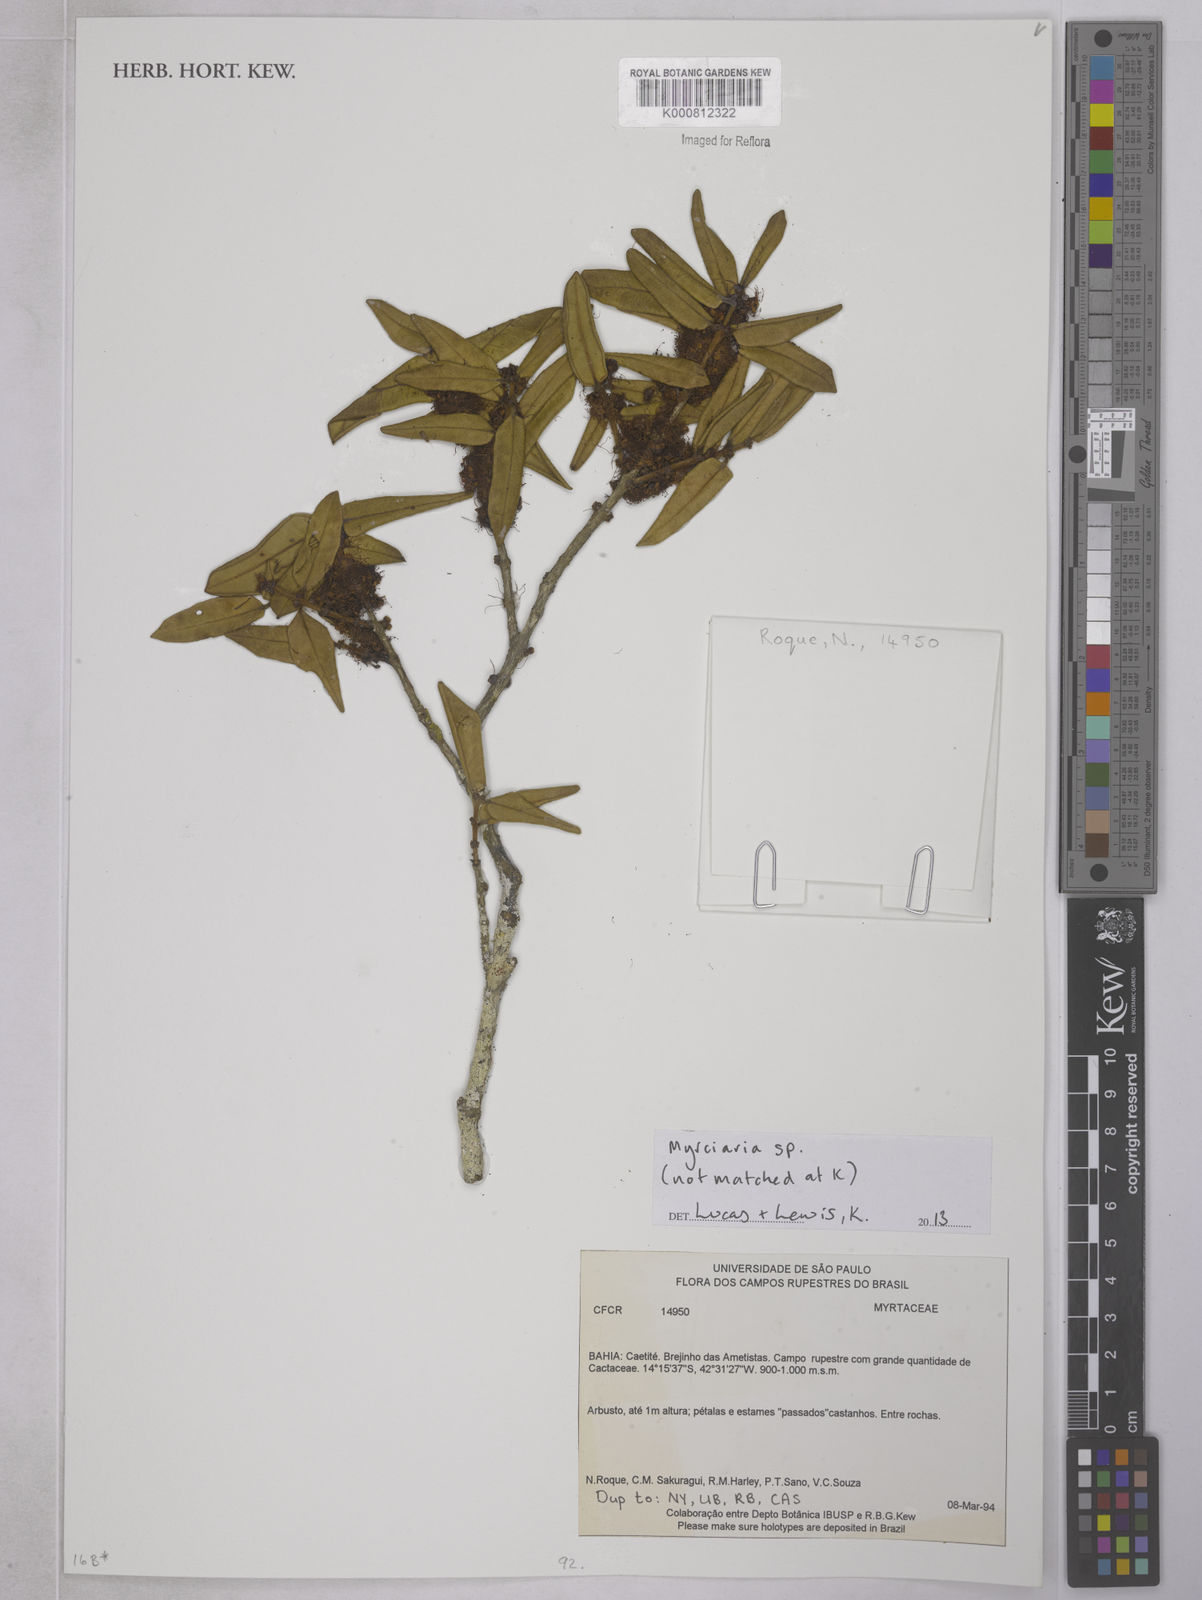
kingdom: Plantae
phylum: Tracheophyta
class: Magnoliopsida
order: Myrtales
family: Myrtaceae
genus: Myrciaria
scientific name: Myrciaria guaquiea
